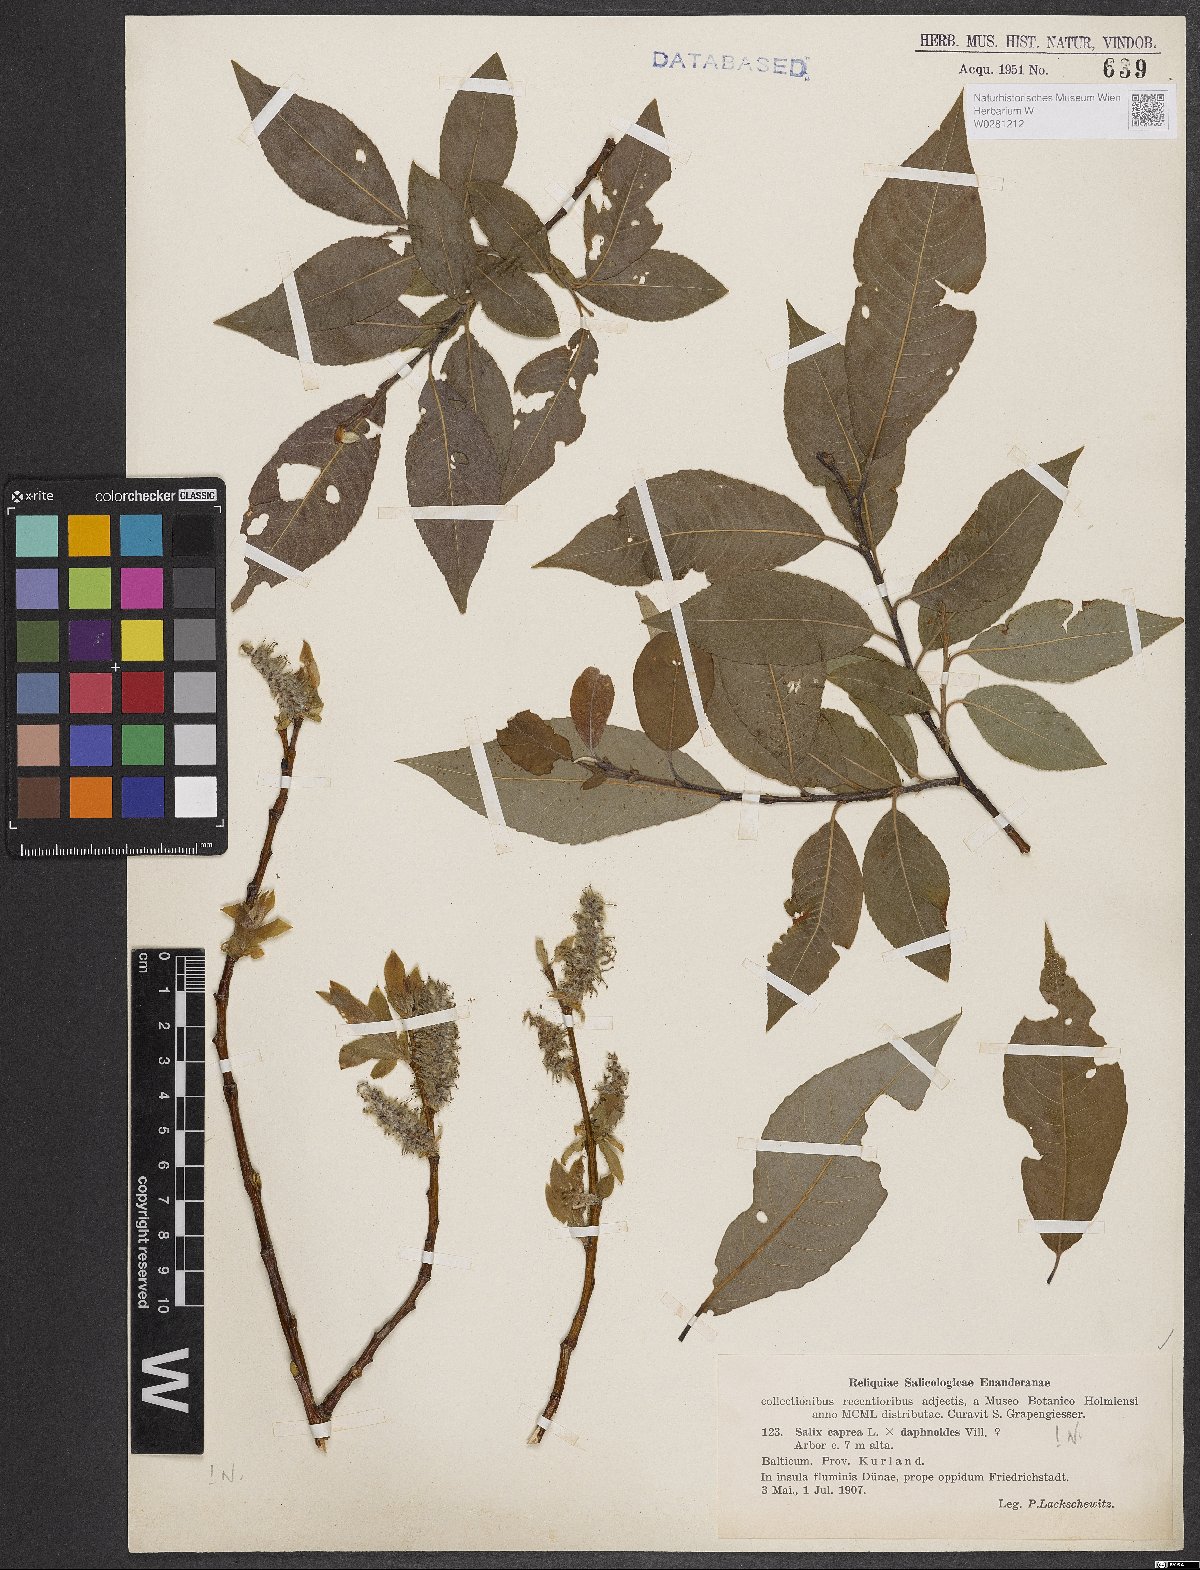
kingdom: Plantae
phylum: Tracheophyta
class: Magnoliopsida
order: Malpighiales
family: Salicaceae
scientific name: Salicaceae
